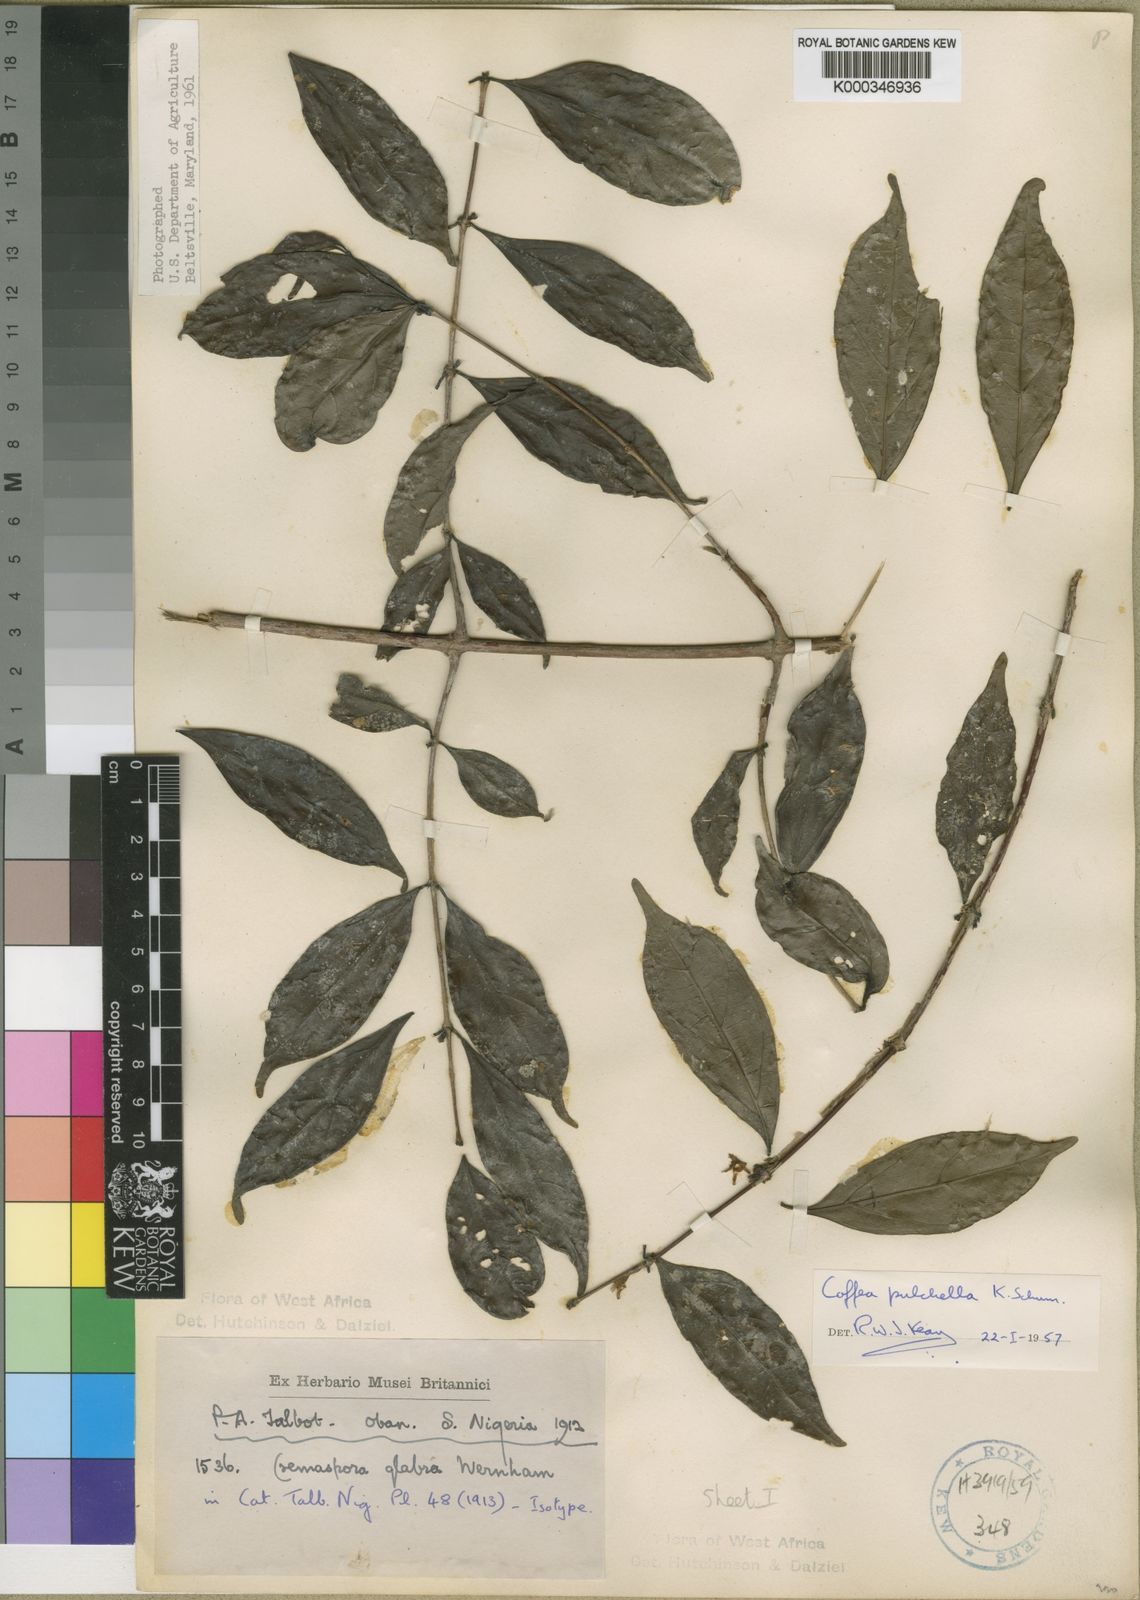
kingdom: Plantae
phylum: Tracheophyta
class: Magnoliopsida
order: Gentianales
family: Rubiaceae
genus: Argocoffeopsis
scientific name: Argocoffeopsis pulchella
